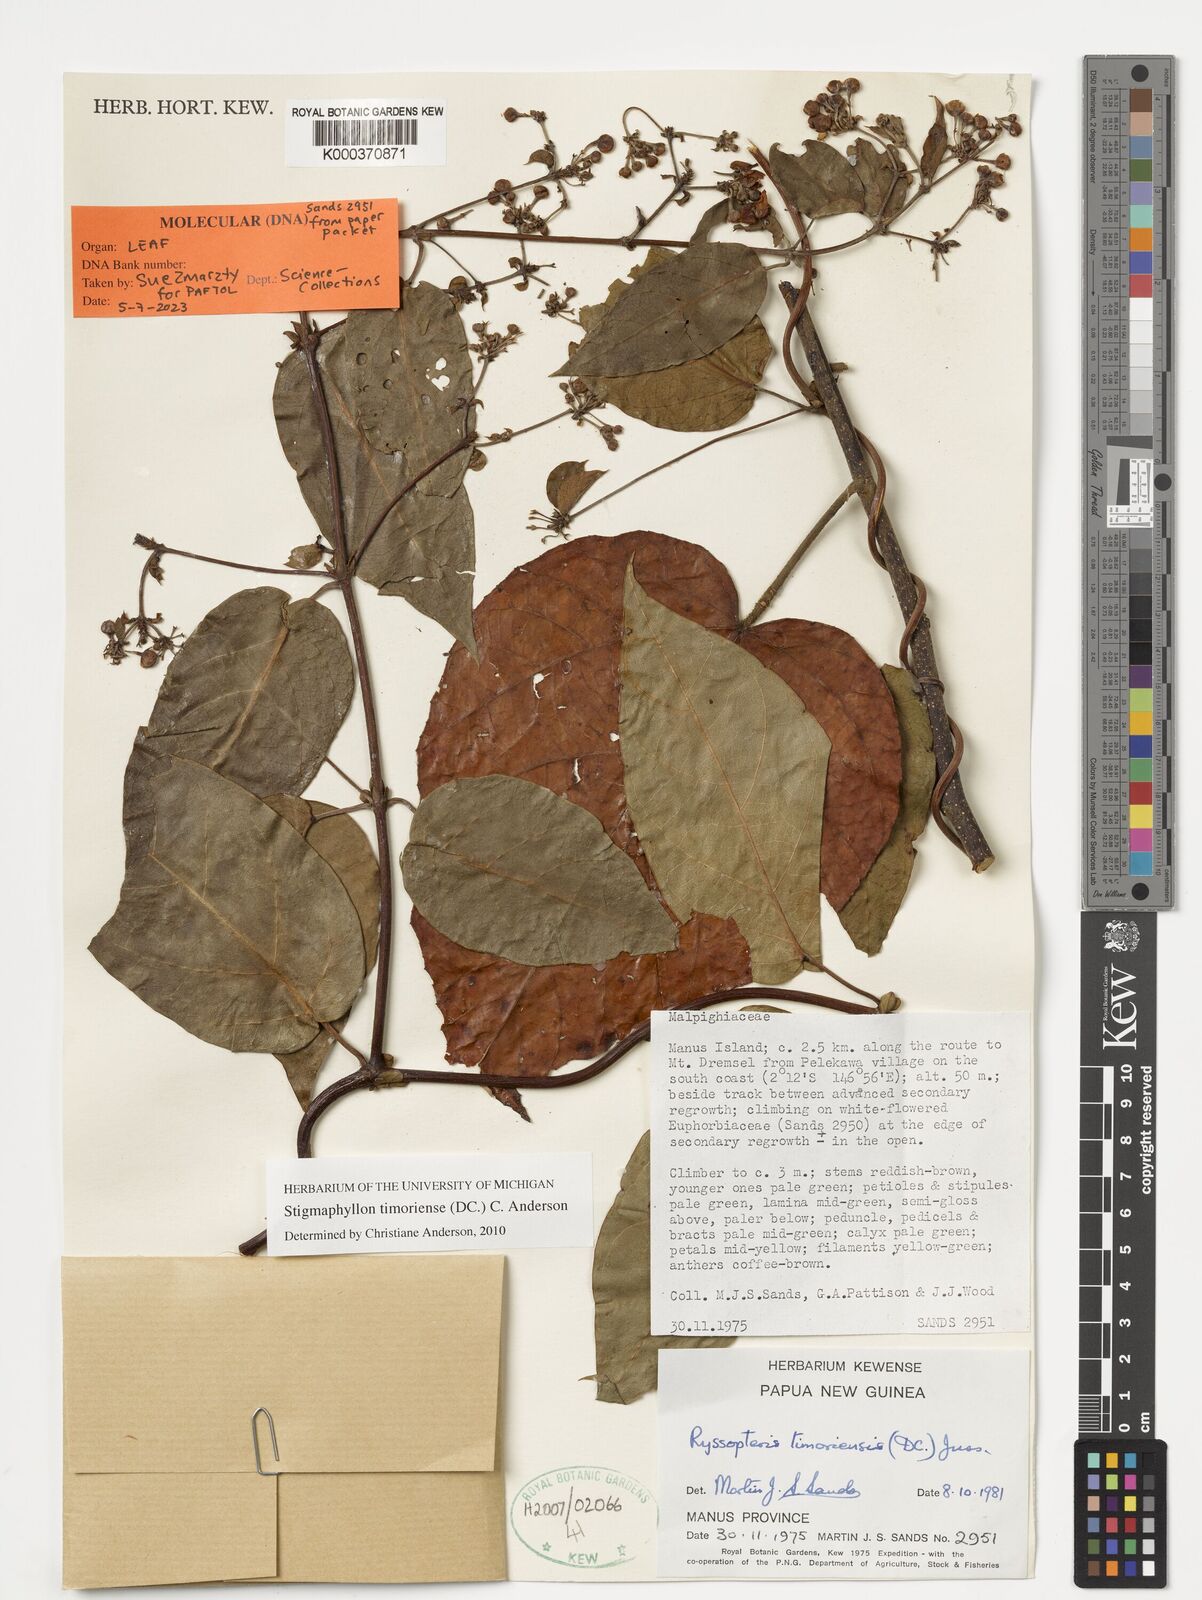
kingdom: Plantae
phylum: Tracheophyta
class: Magnoliopsida
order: Malpighiales
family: Malpighiaceae
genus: Stigmaphyllon
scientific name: Stigmaphyllon timoriense
